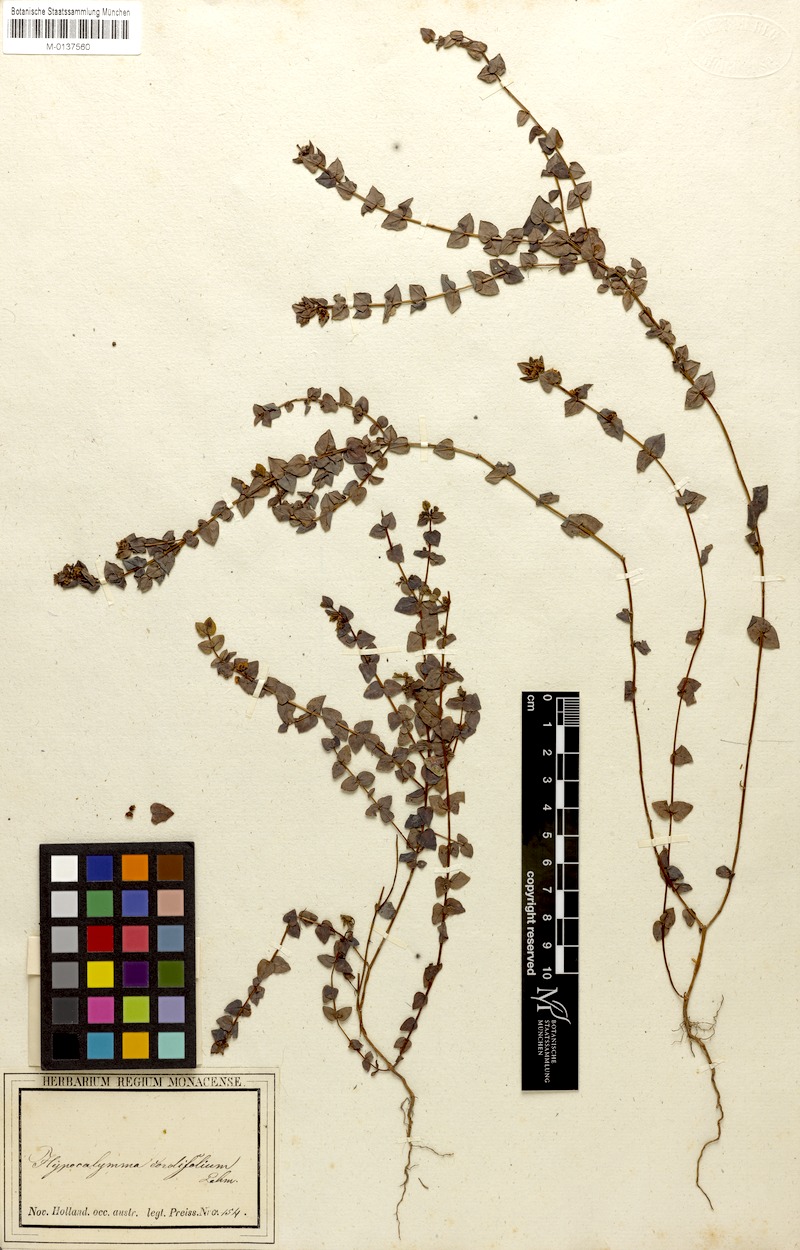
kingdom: Plantae
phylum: Tracheophyta
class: Magnoliopsida
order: Myrtales
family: Myrtaceae
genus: Hypocalymma
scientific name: Hypocalymma cordifolium
